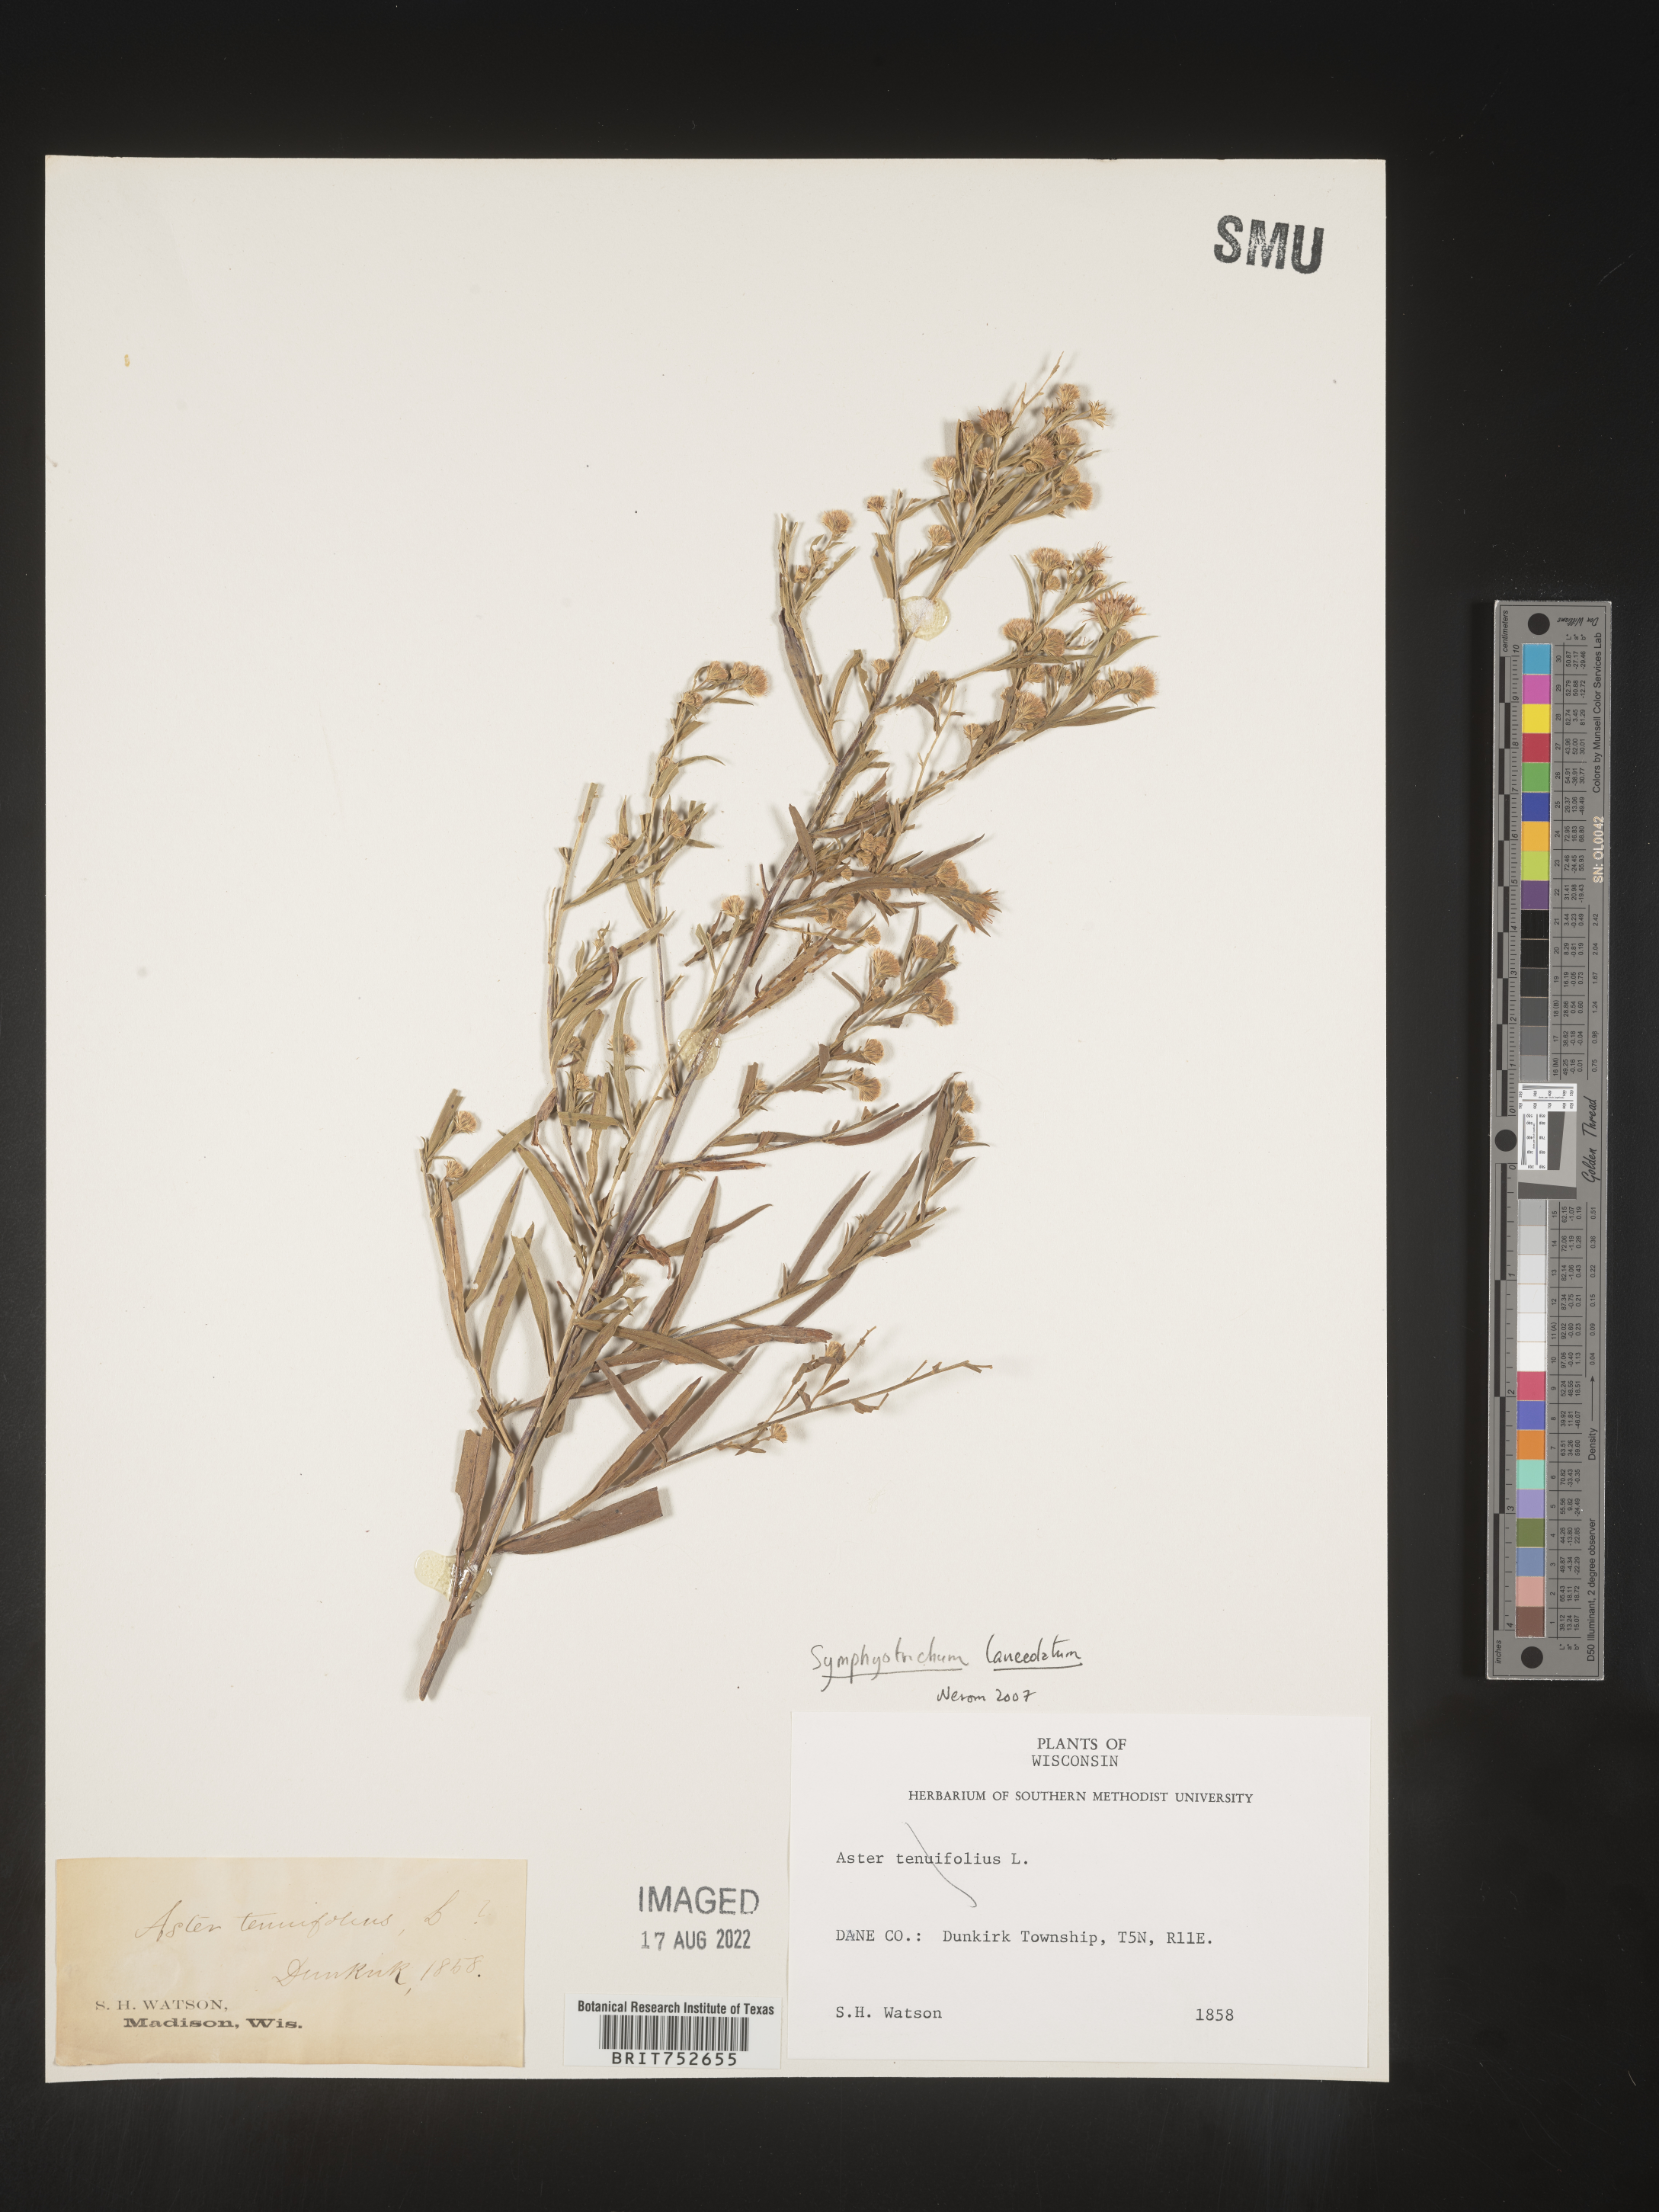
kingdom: Plantae
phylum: Tracheophyta
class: Magnoliopsida
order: Asterales
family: Asteraceae
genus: Symphyotrichum
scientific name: Symphyotrichum lanceolatum
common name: Panicled aster
